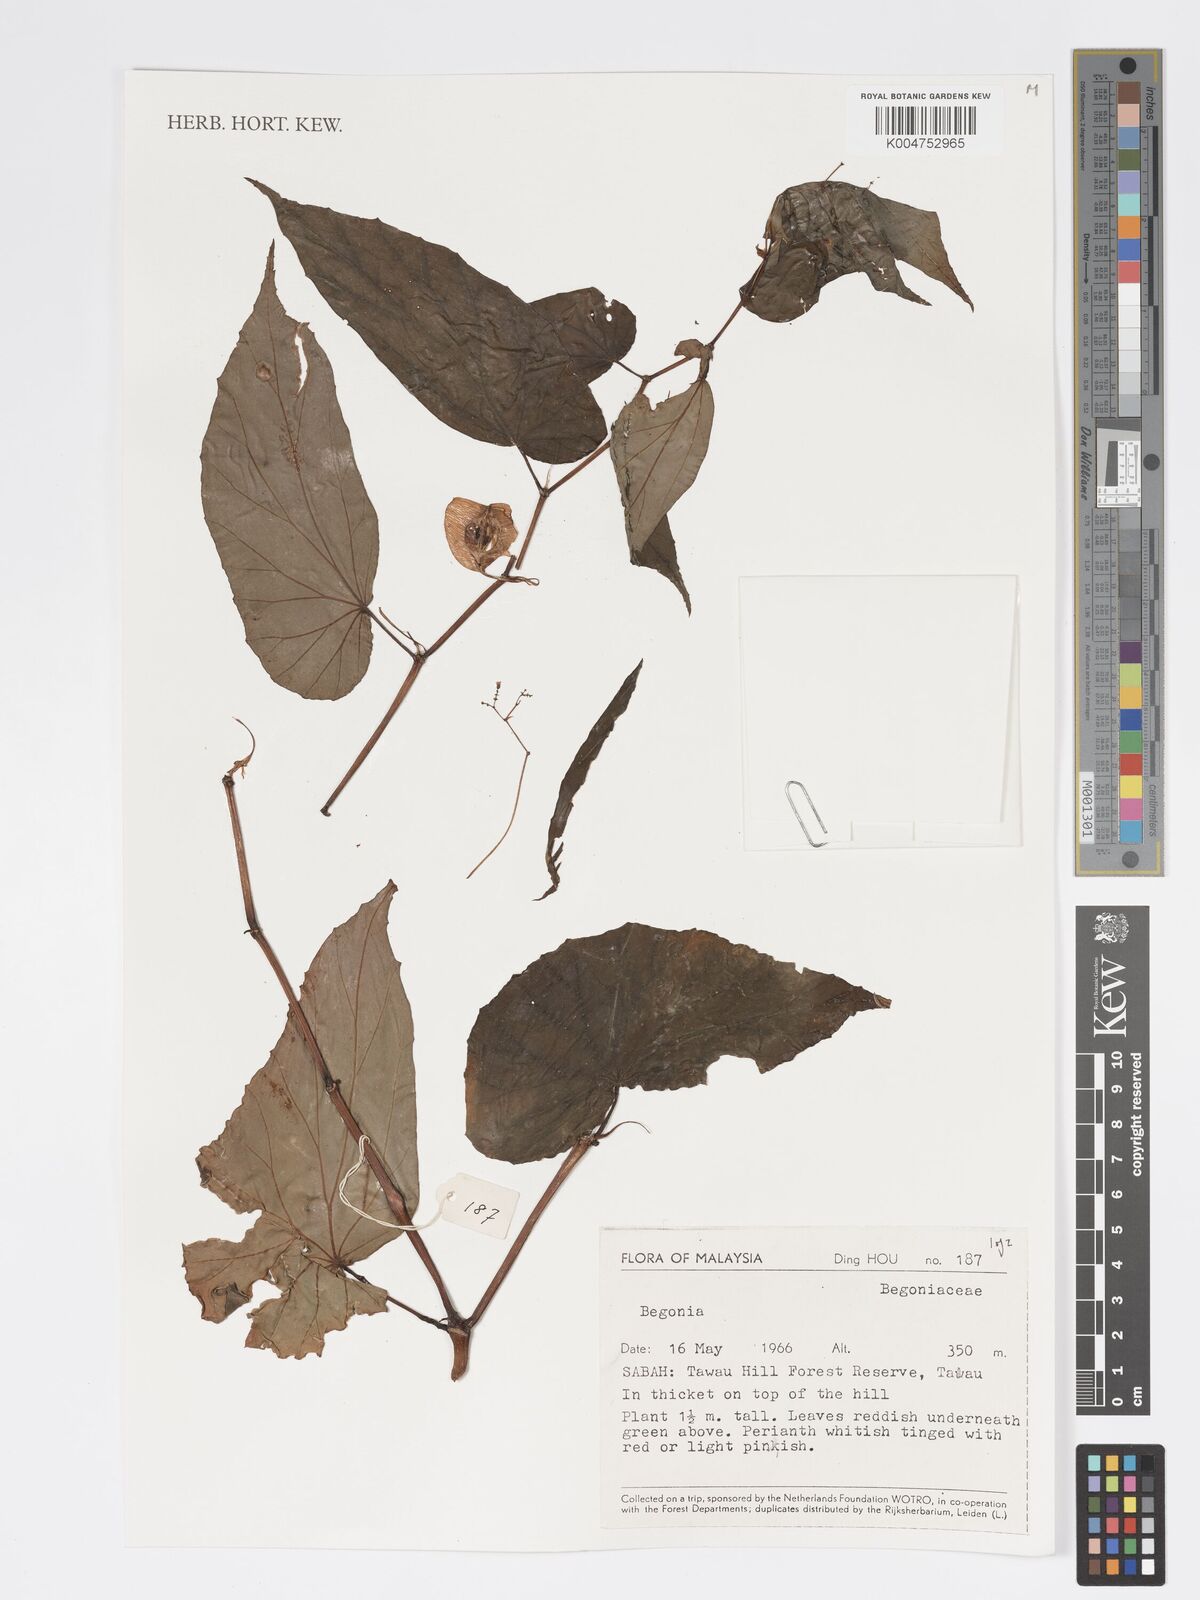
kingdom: Plantae
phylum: Tracheophyta
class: Magnoliopsida
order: Cucurbitales
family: Begoniaceae
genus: Begonia
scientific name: Begonia
